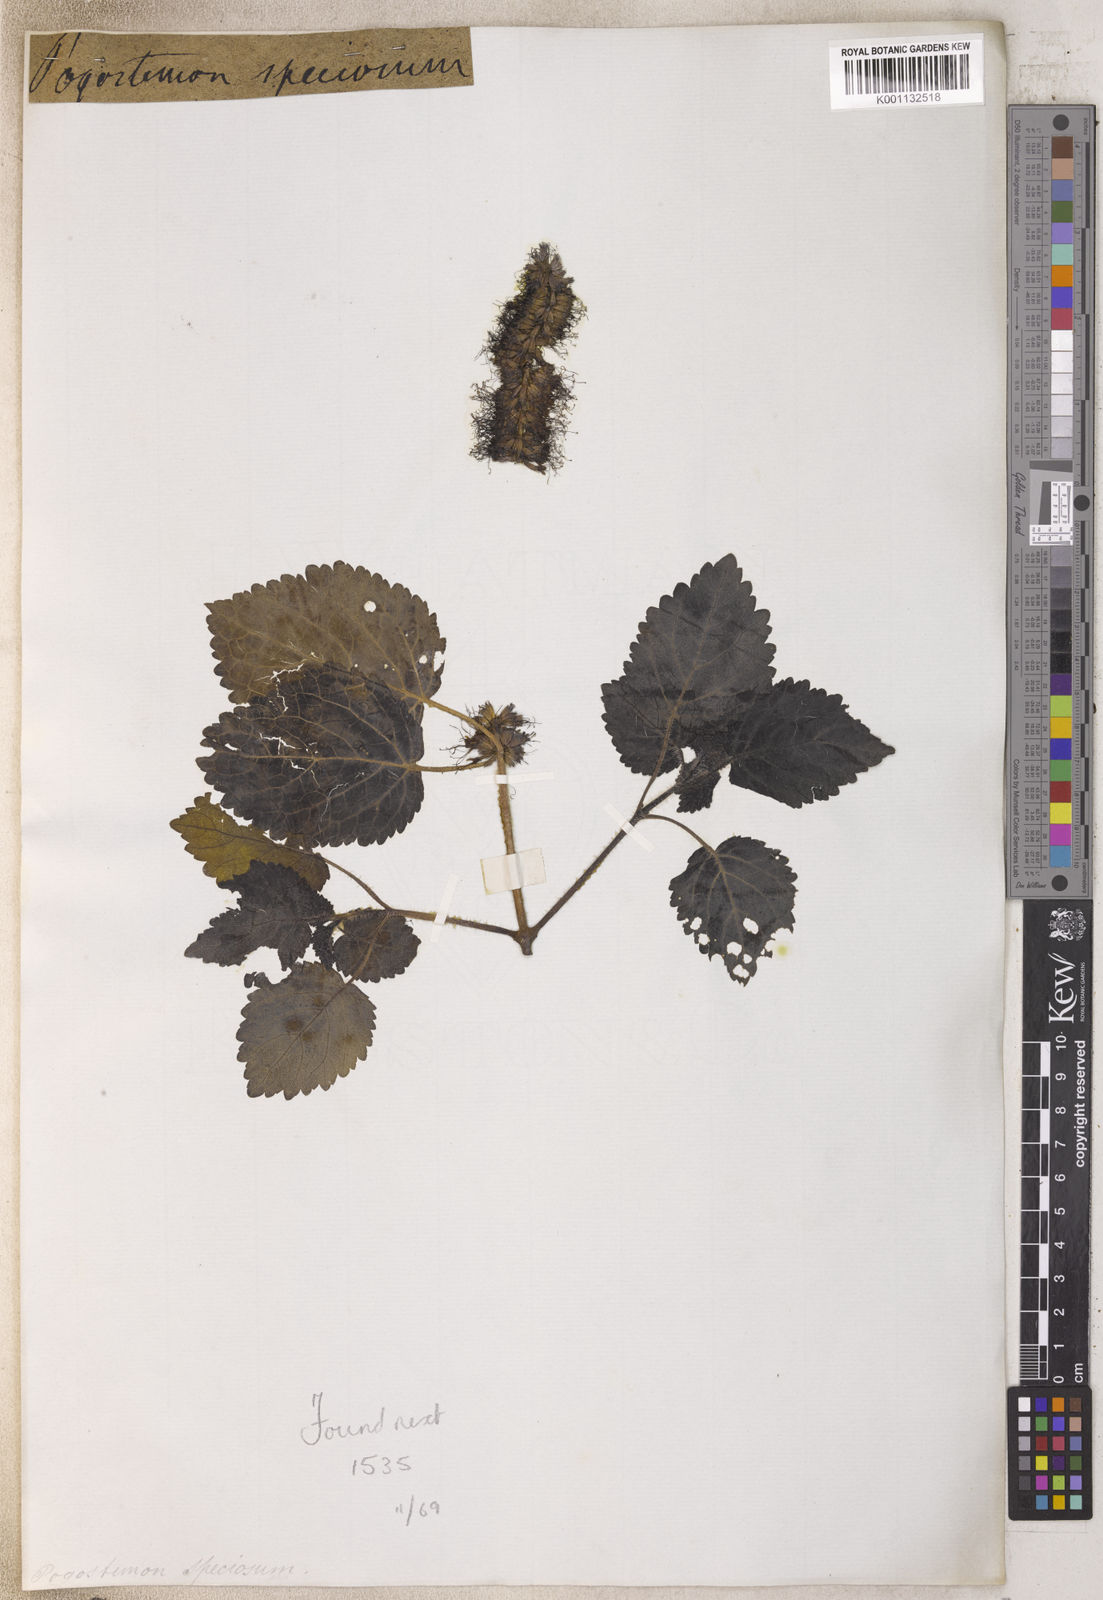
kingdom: Plantae
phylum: Tracheophyta
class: Magnoliopsida
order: Lamiales
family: Lamiaceae
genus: Pogostemon
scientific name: Pogostemon
